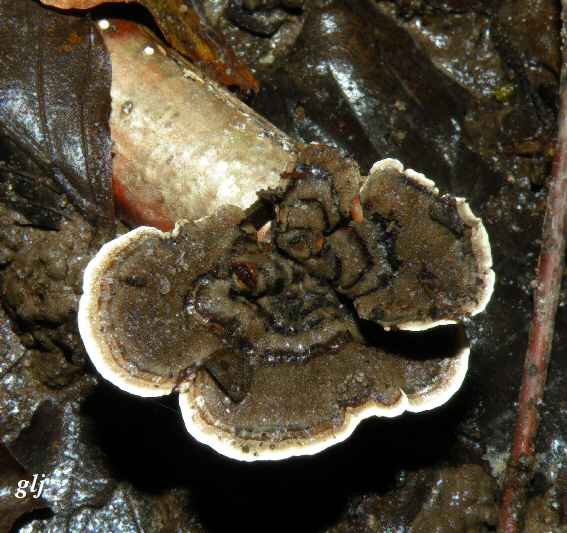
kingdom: Fungi
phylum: Basidiomycota
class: Agaricomycetes
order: Polyporales
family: Polyporaceae
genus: Trametes
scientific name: Trametes versicolor
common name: broget læderporesvamp
